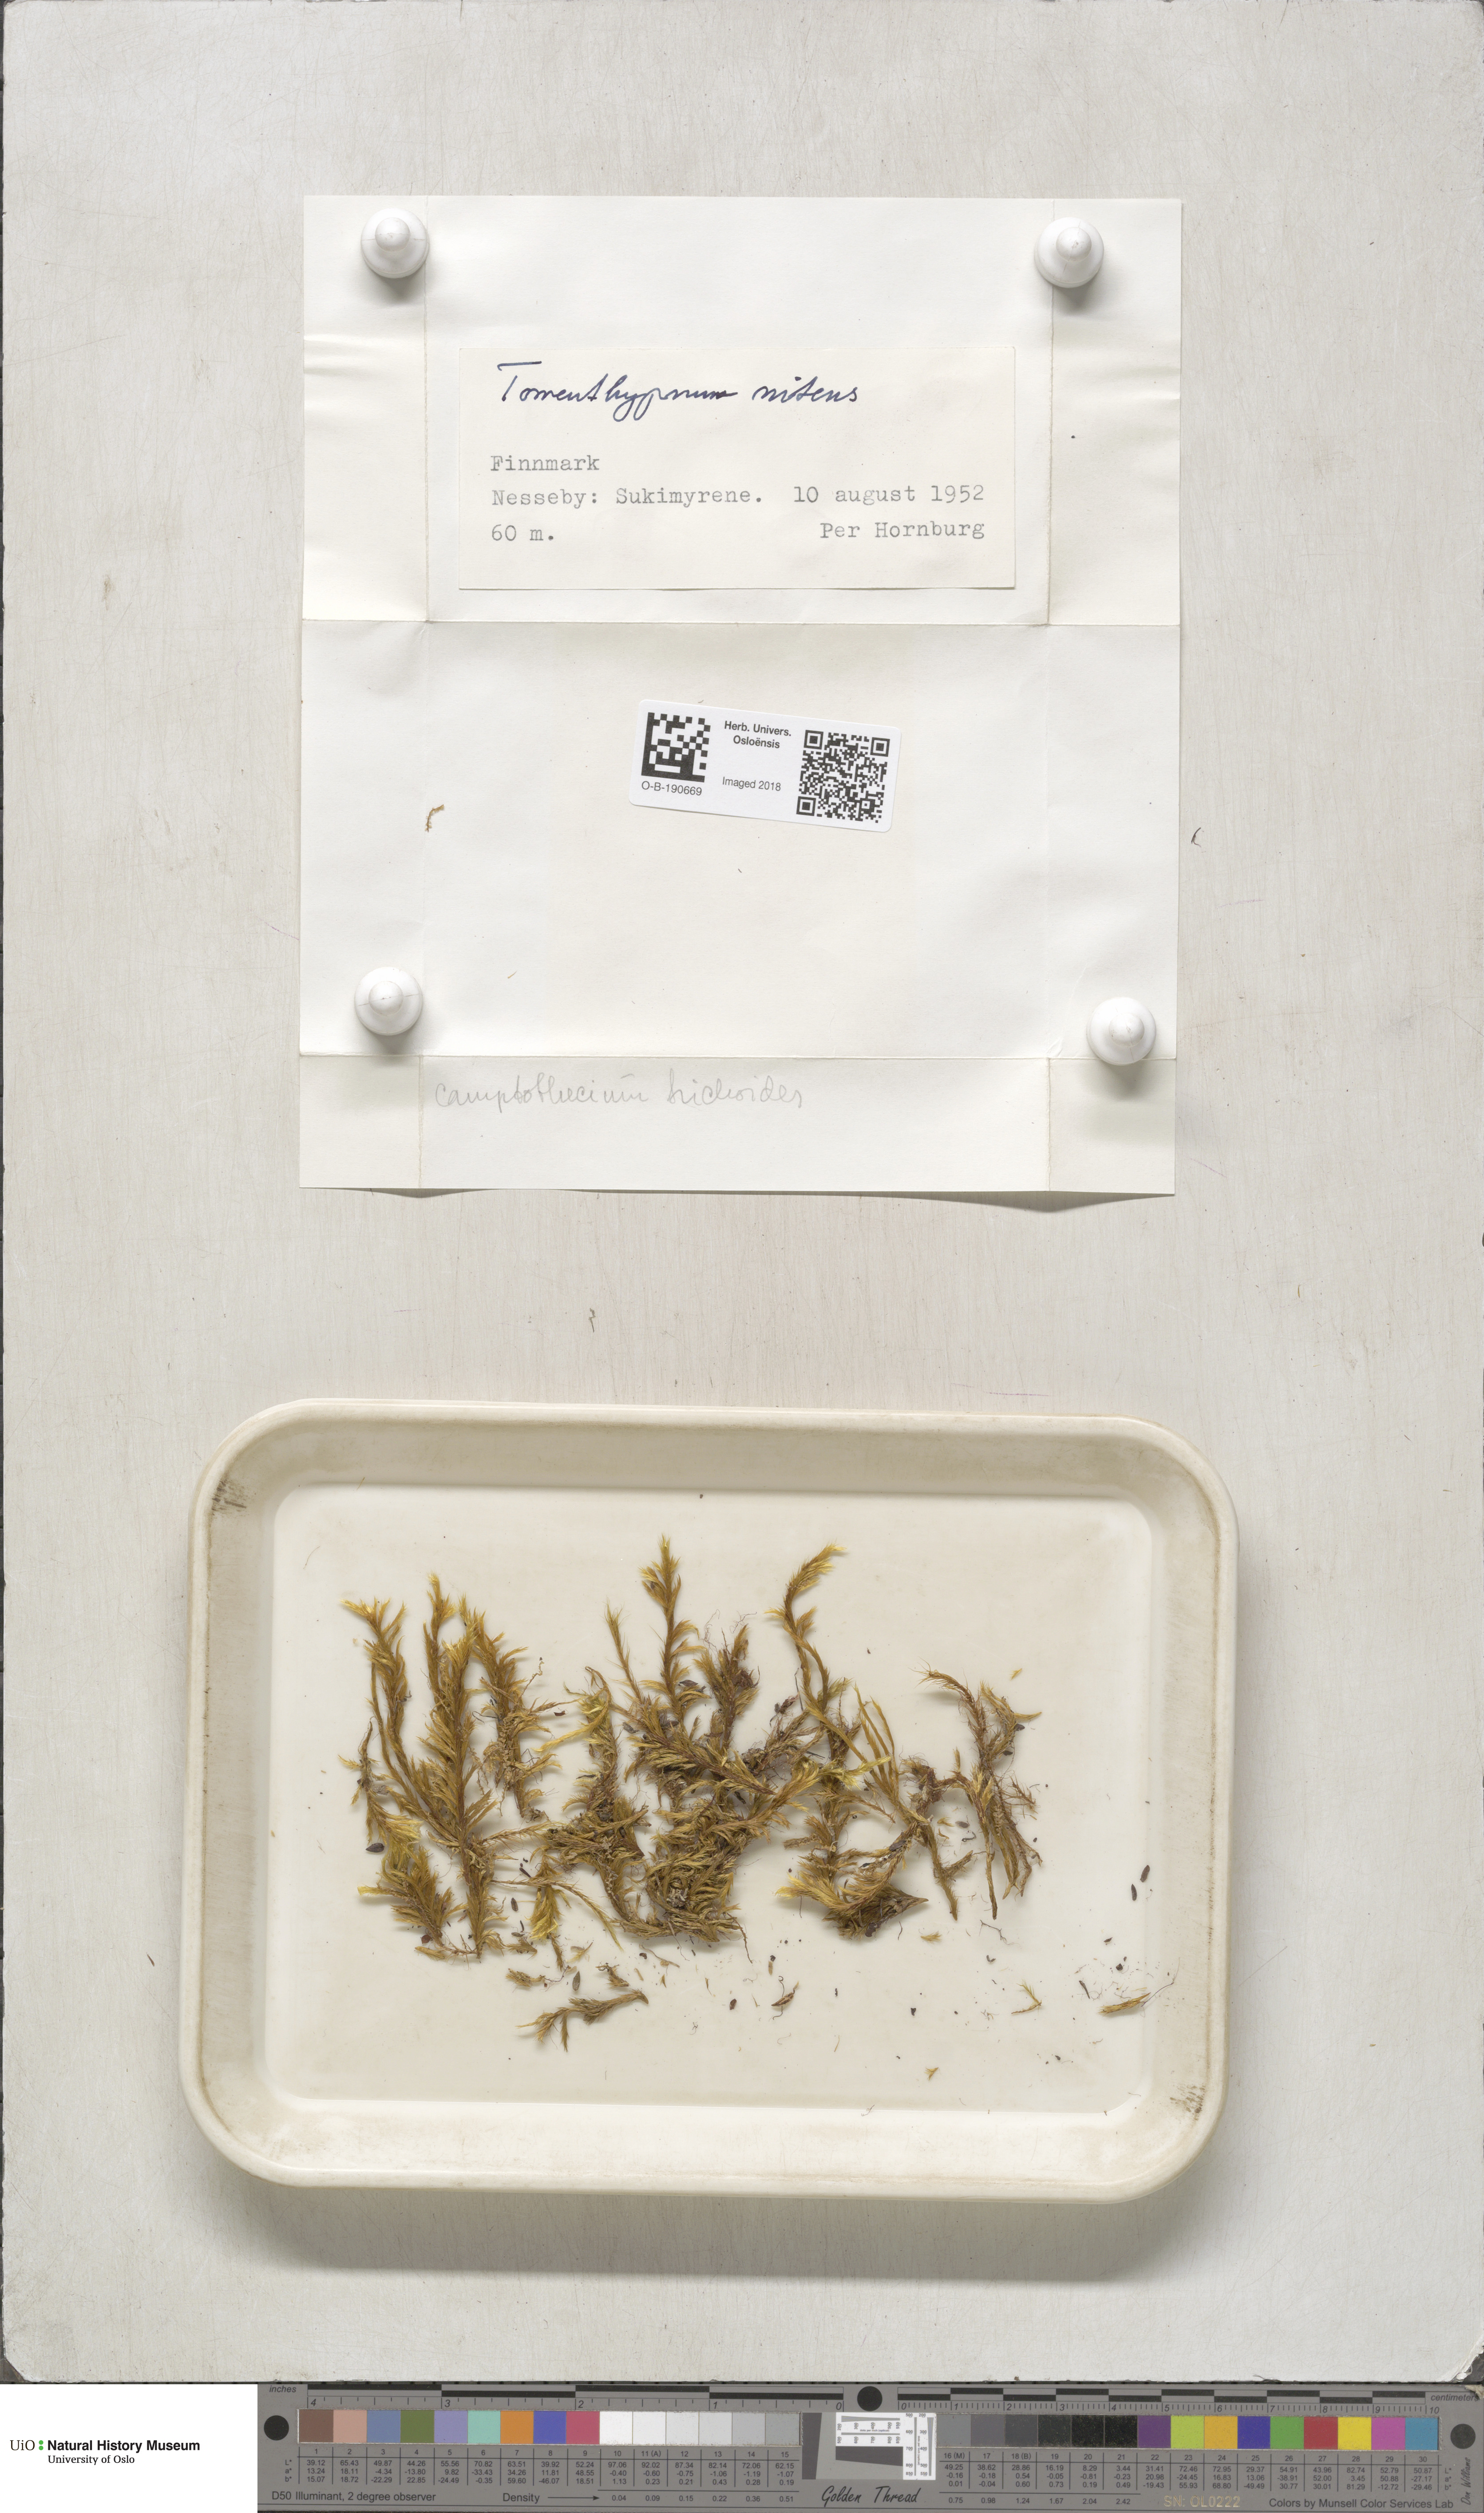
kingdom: Plantae
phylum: Bryophyta
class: Bryopsida
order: Hypnales
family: Amblystegiaceae
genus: Tomentypnum
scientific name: Tomentypnum nitens
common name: Golden fuzzy fen moss
